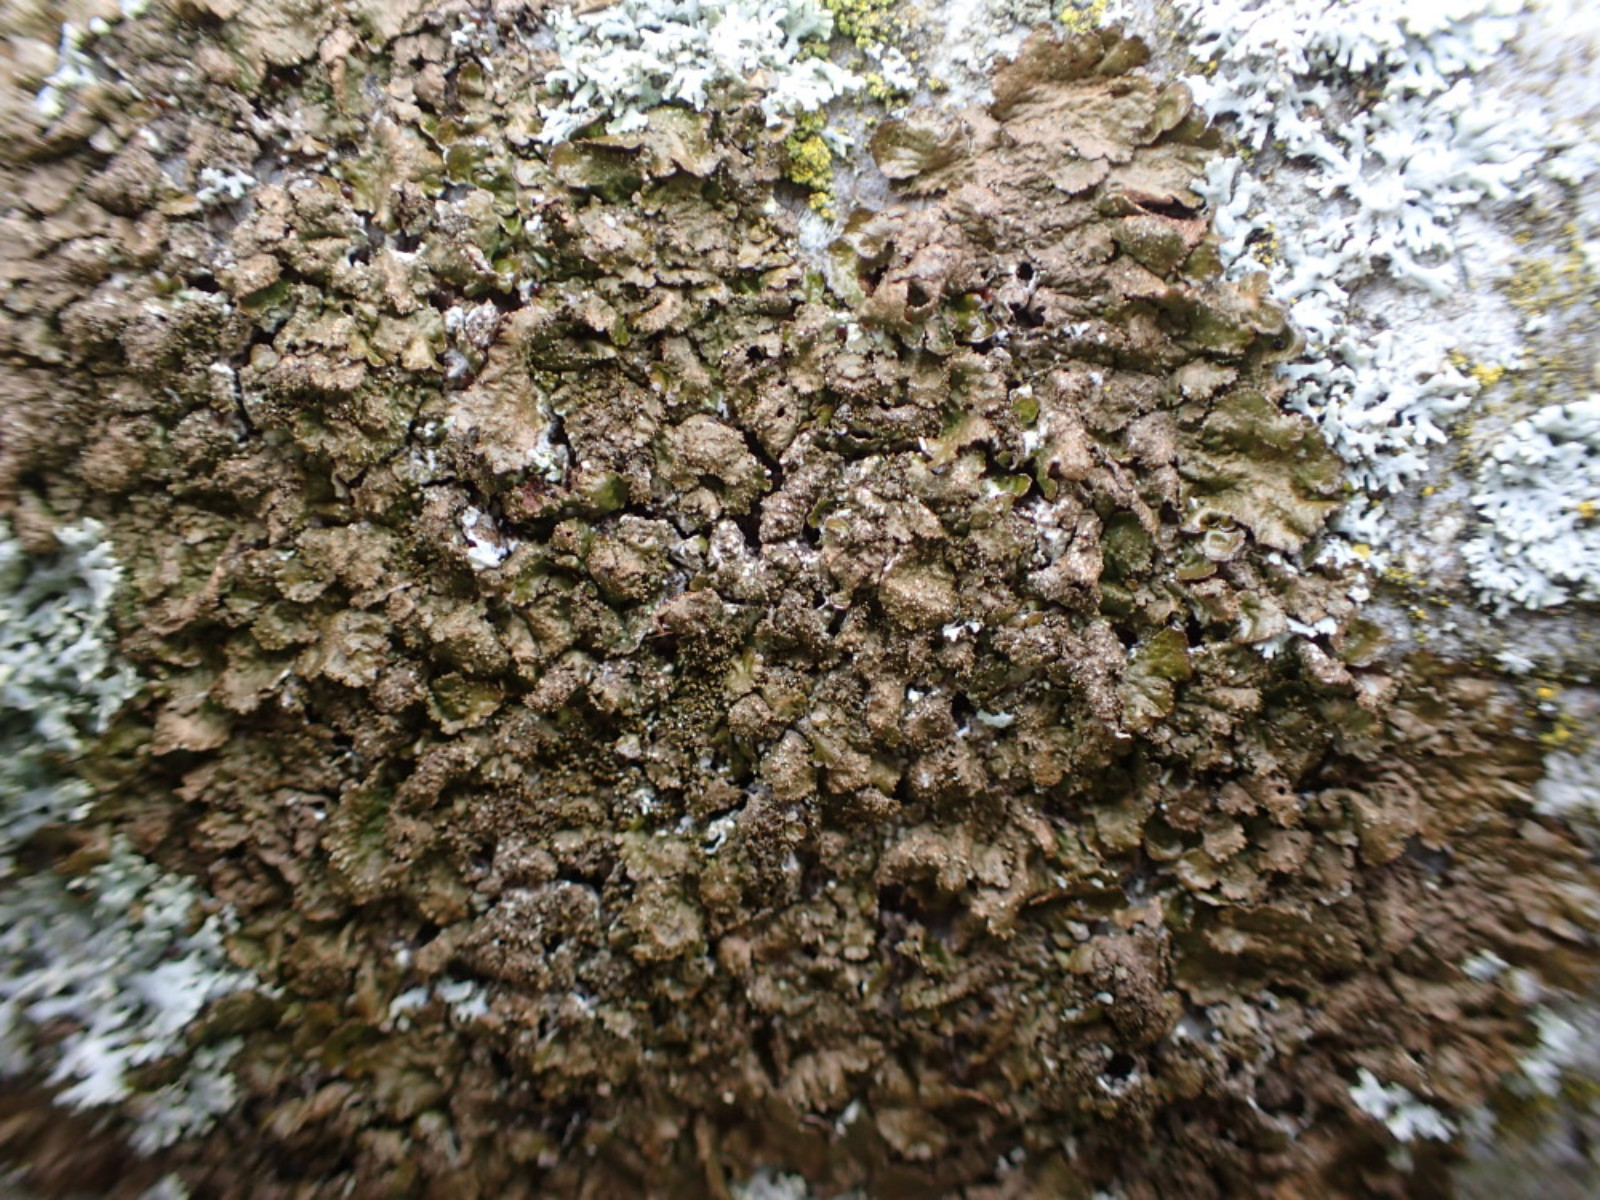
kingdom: Fungi
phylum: Ascomycota
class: Lecanoromycetes
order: Lecanorales
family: Parmeliaceae
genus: Melanelixia
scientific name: Melanelixia glabratula
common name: glinsende skållav
